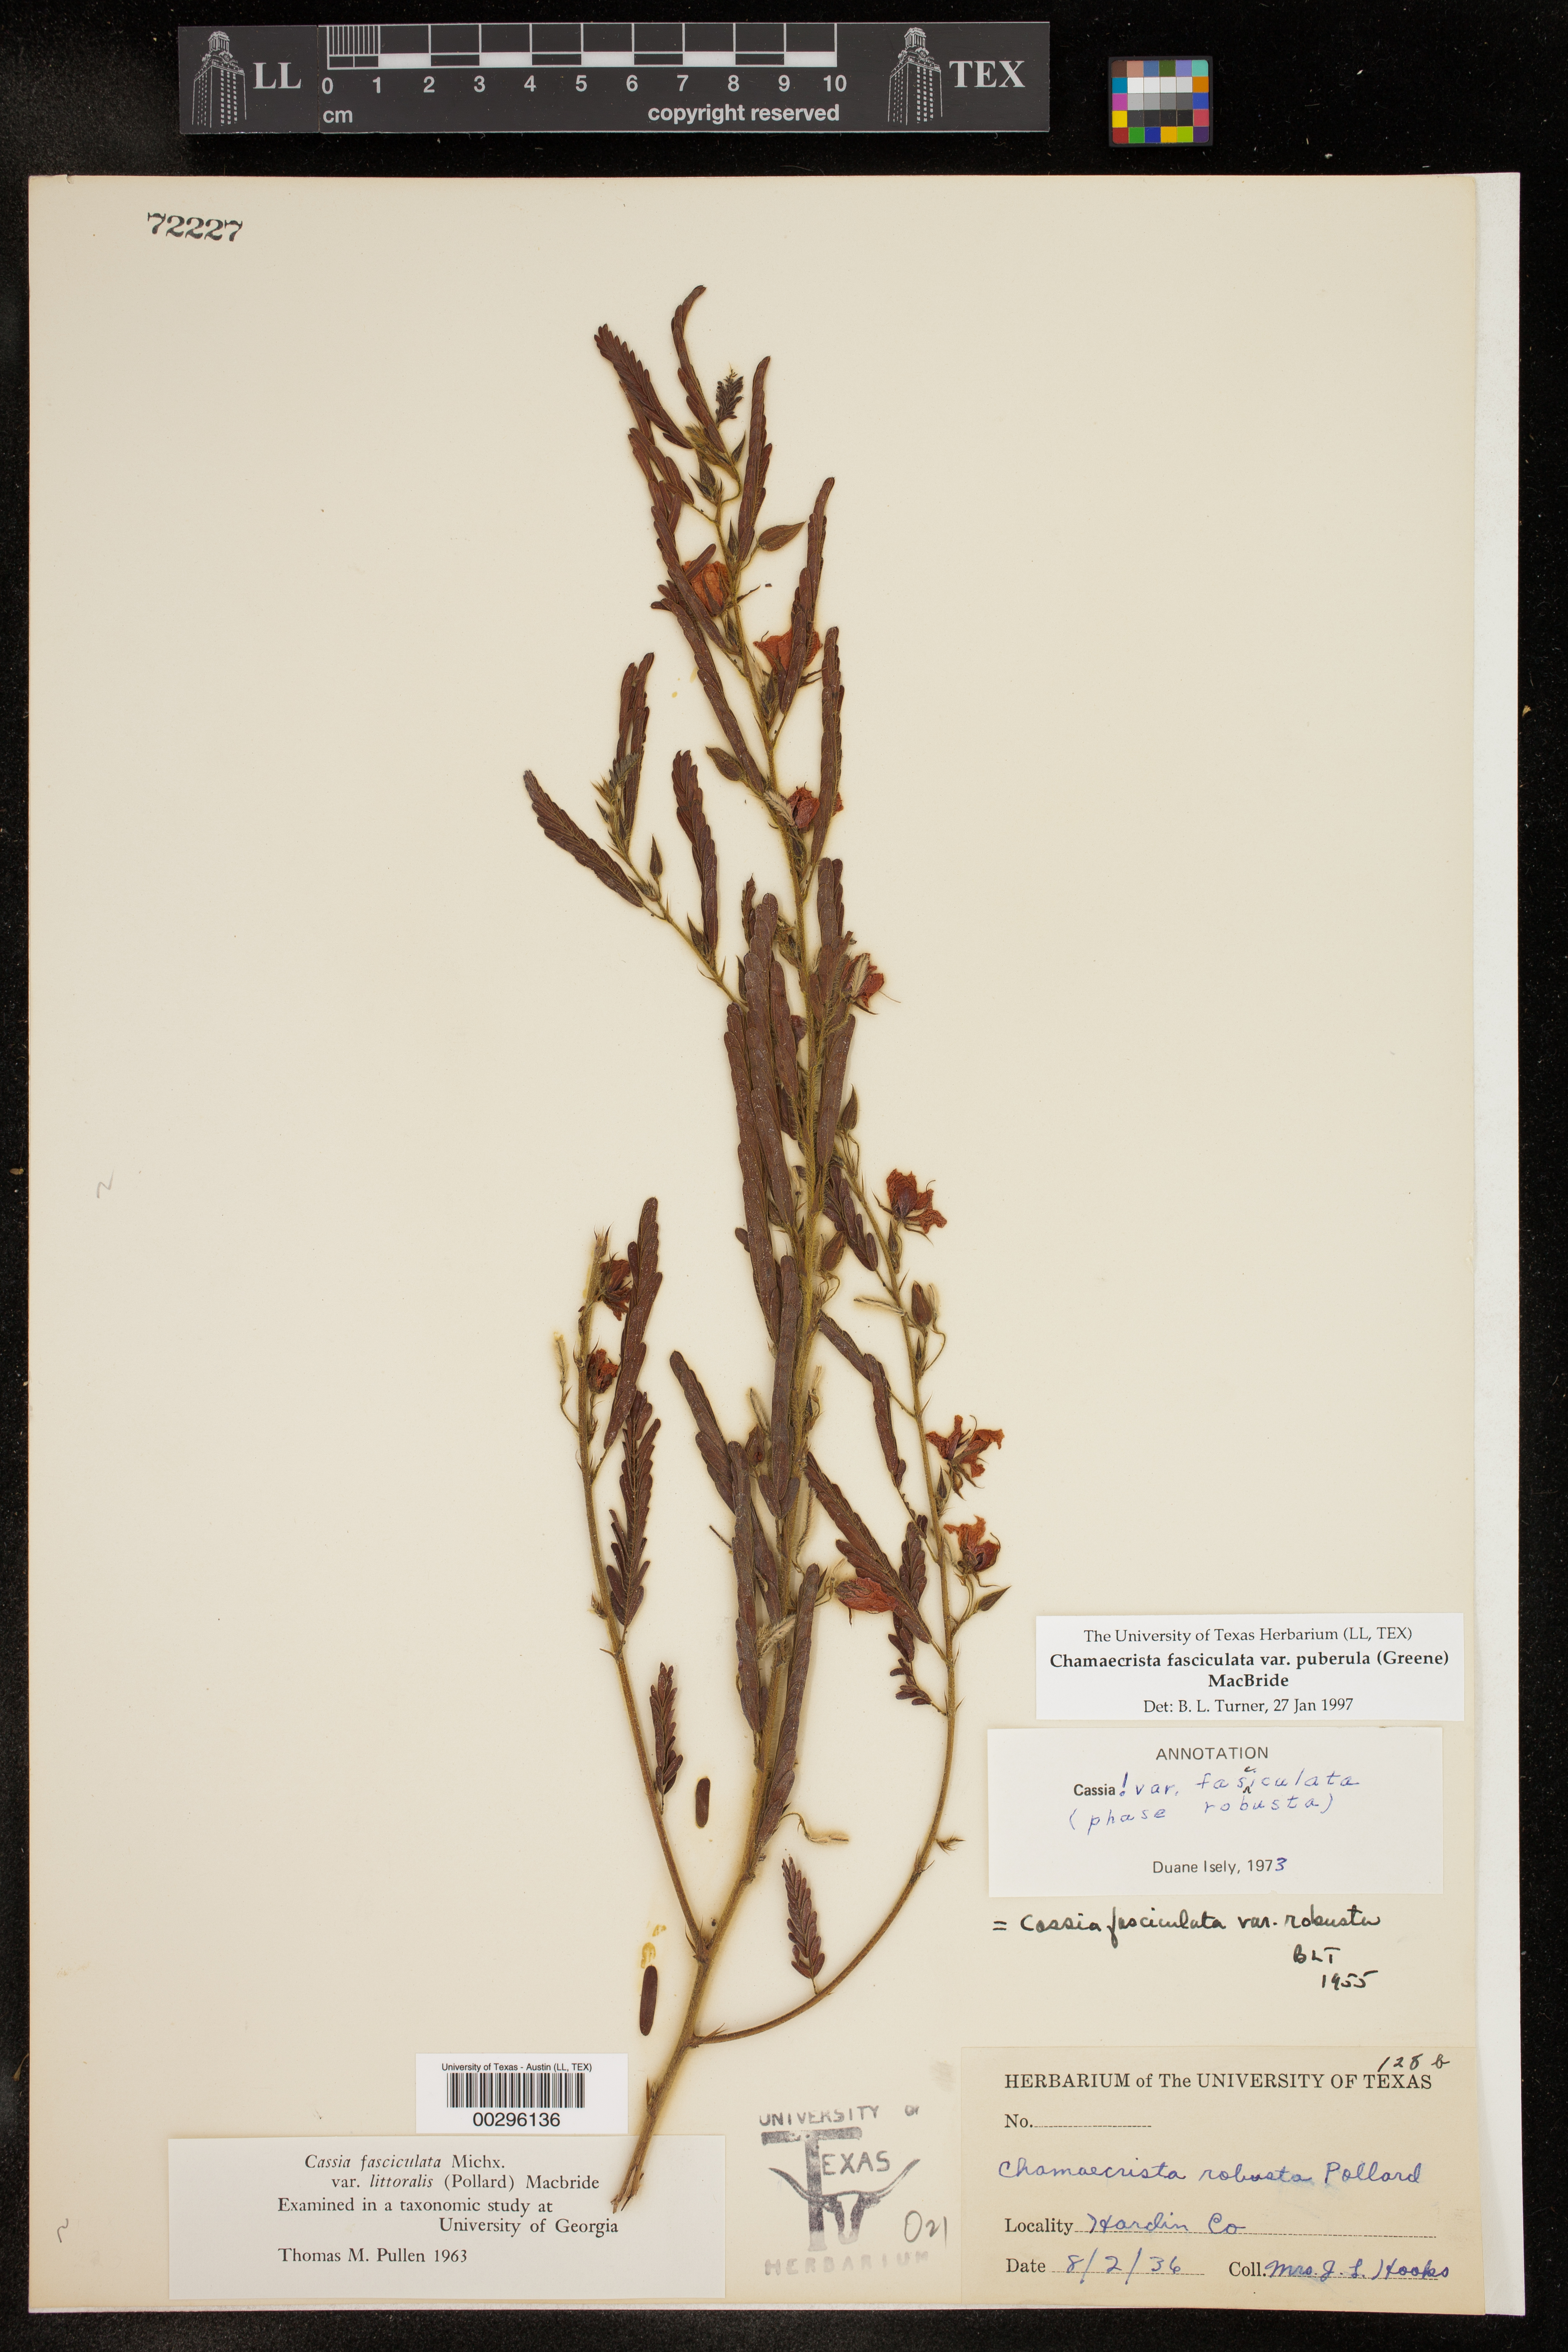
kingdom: Plantae
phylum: Tracheophyta
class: Magnoliopsida
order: Fabales
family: Fabaceae
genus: Chamaecrista
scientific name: Chamaecrista fasciculata
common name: Golden cassia
